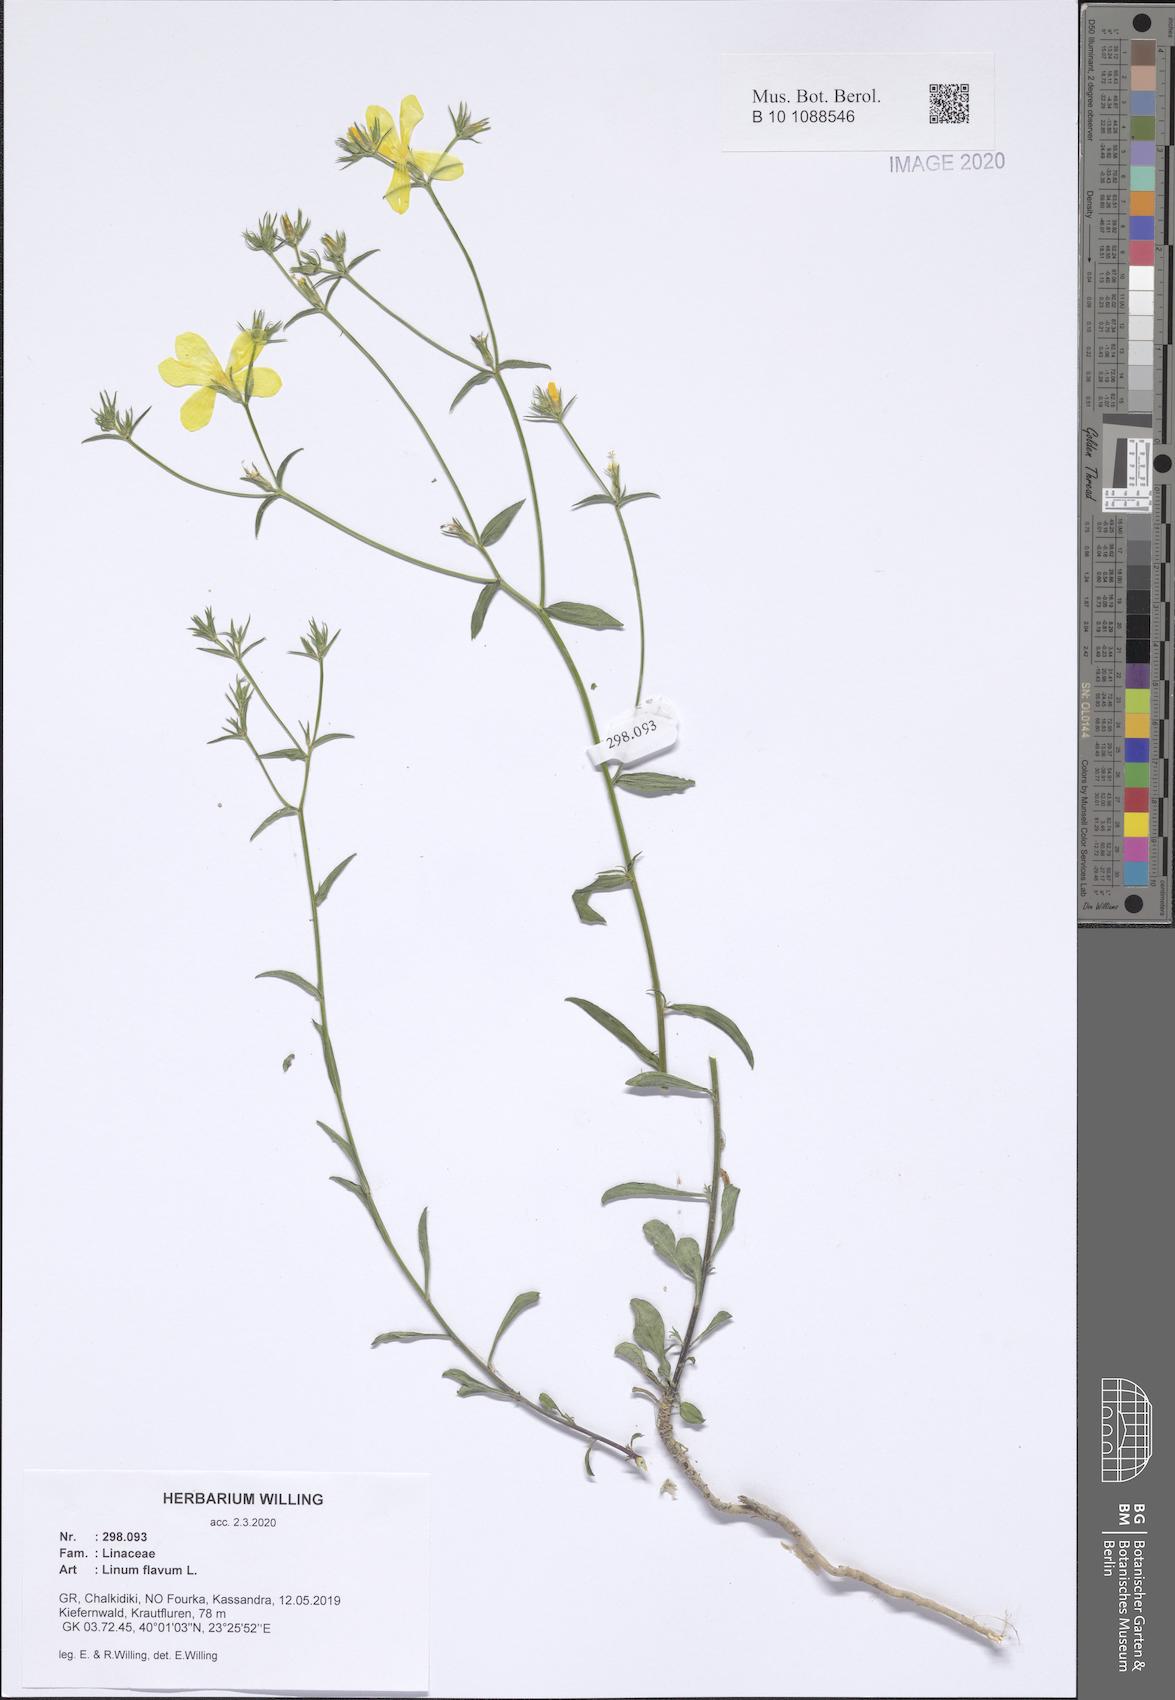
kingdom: Plantae
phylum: Tracheophyta
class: Magnoliopsida
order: Malpighiales
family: Linaceae
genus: Linum
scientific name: Linum flavum
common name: Yellow flax
